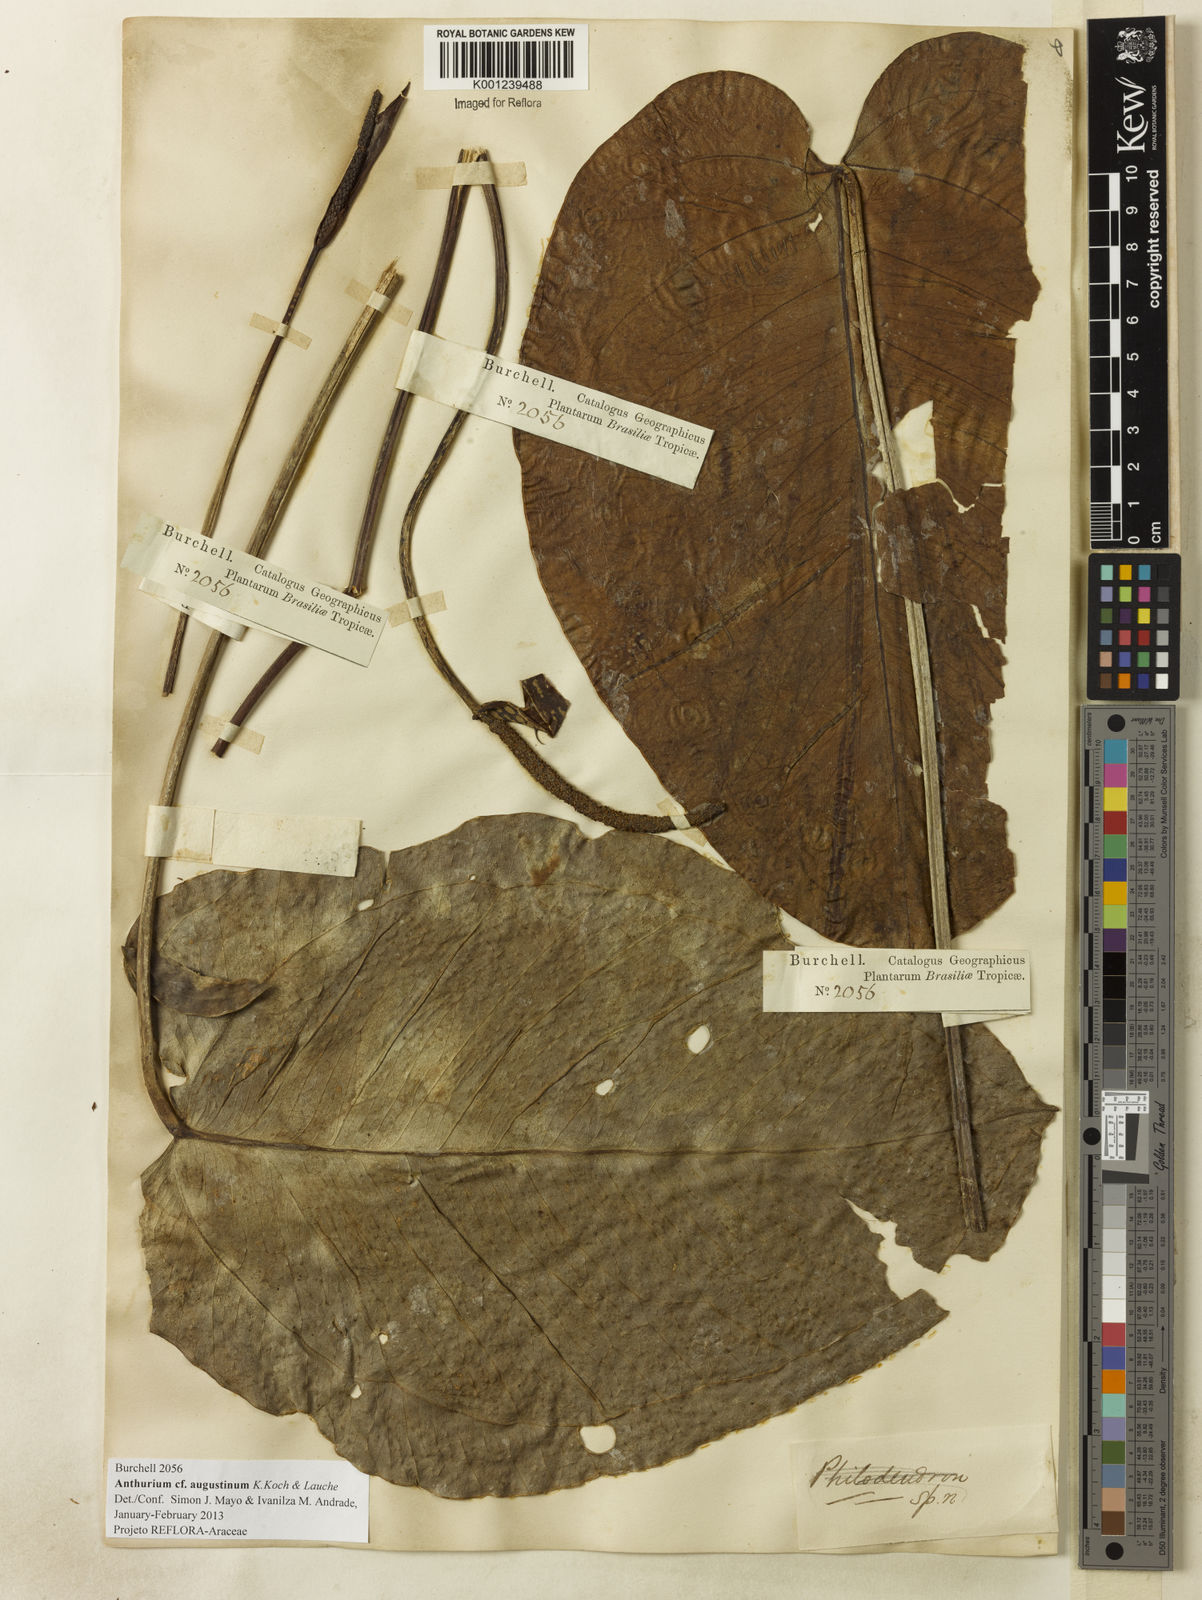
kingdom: Plantae
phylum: Tracheophyta
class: Liliopsida
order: Alismatales
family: Araceae
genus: Anthurium
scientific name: Anthurium augustinum
